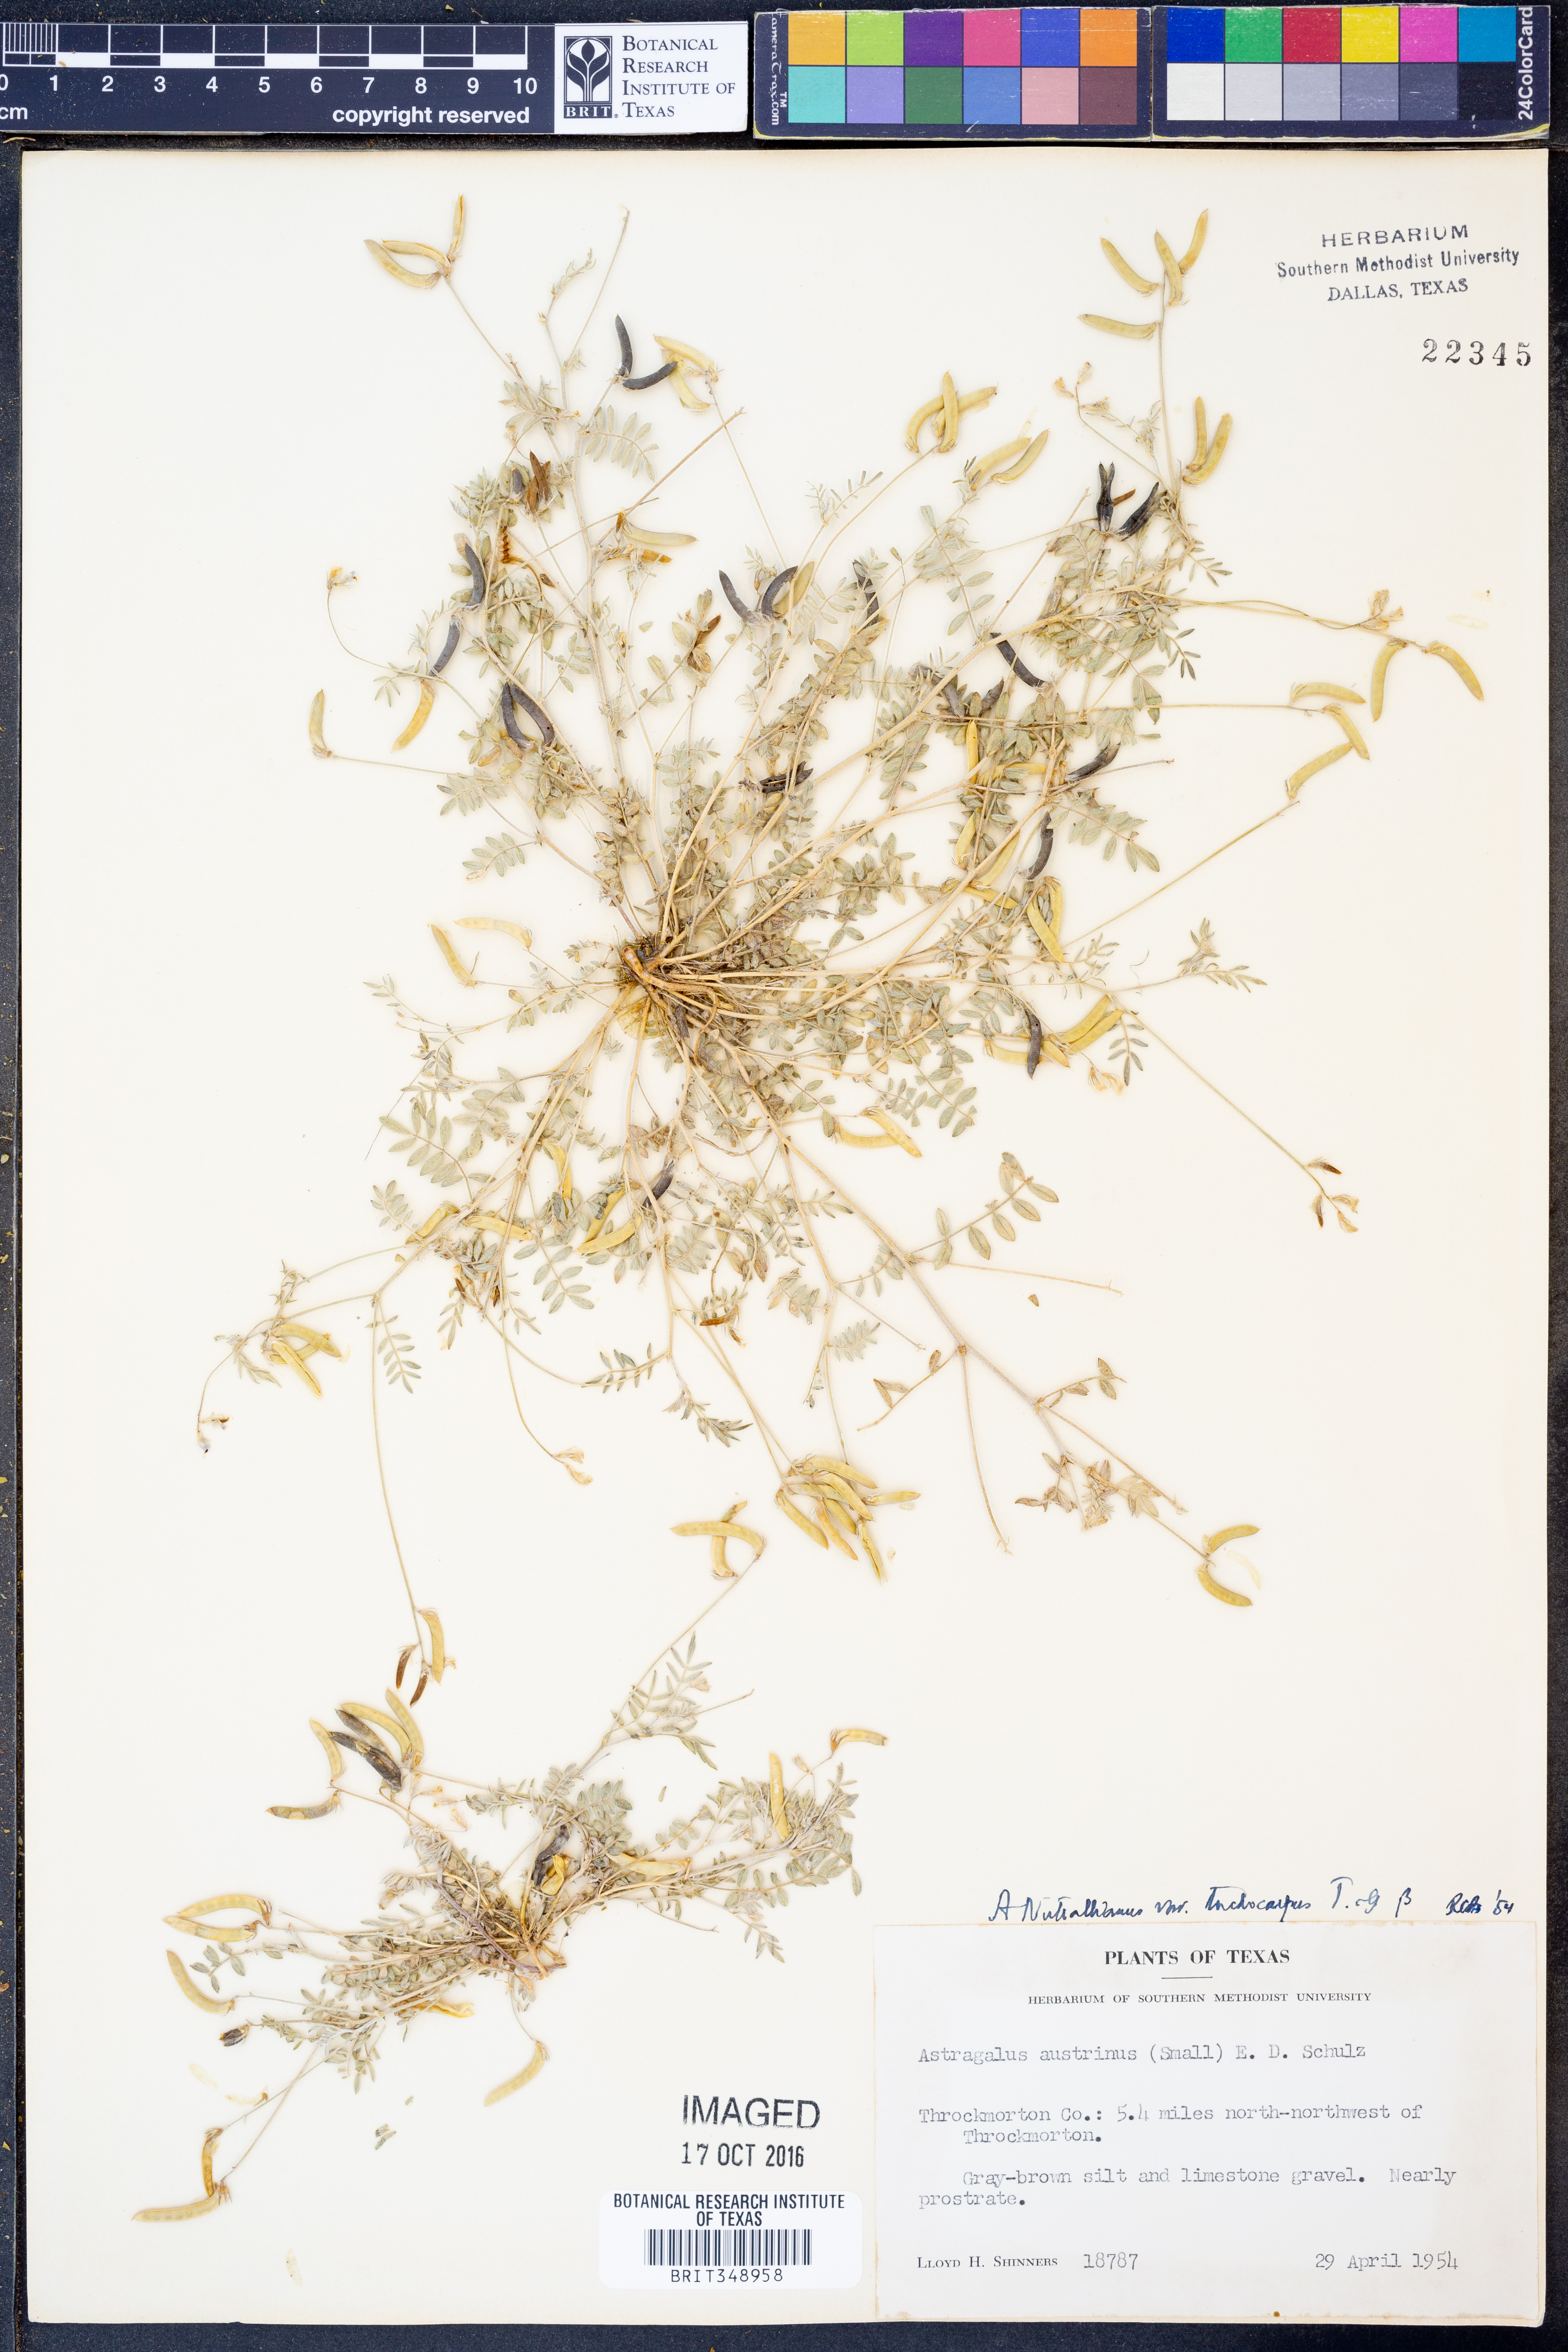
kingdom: Plantae
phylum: Tracheophyta
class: Magnoliopsida
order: Fabales
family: Fabaceae
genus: Astragalus
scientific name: Astragalus nuttallianus
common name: Smallflowered milkvetch
